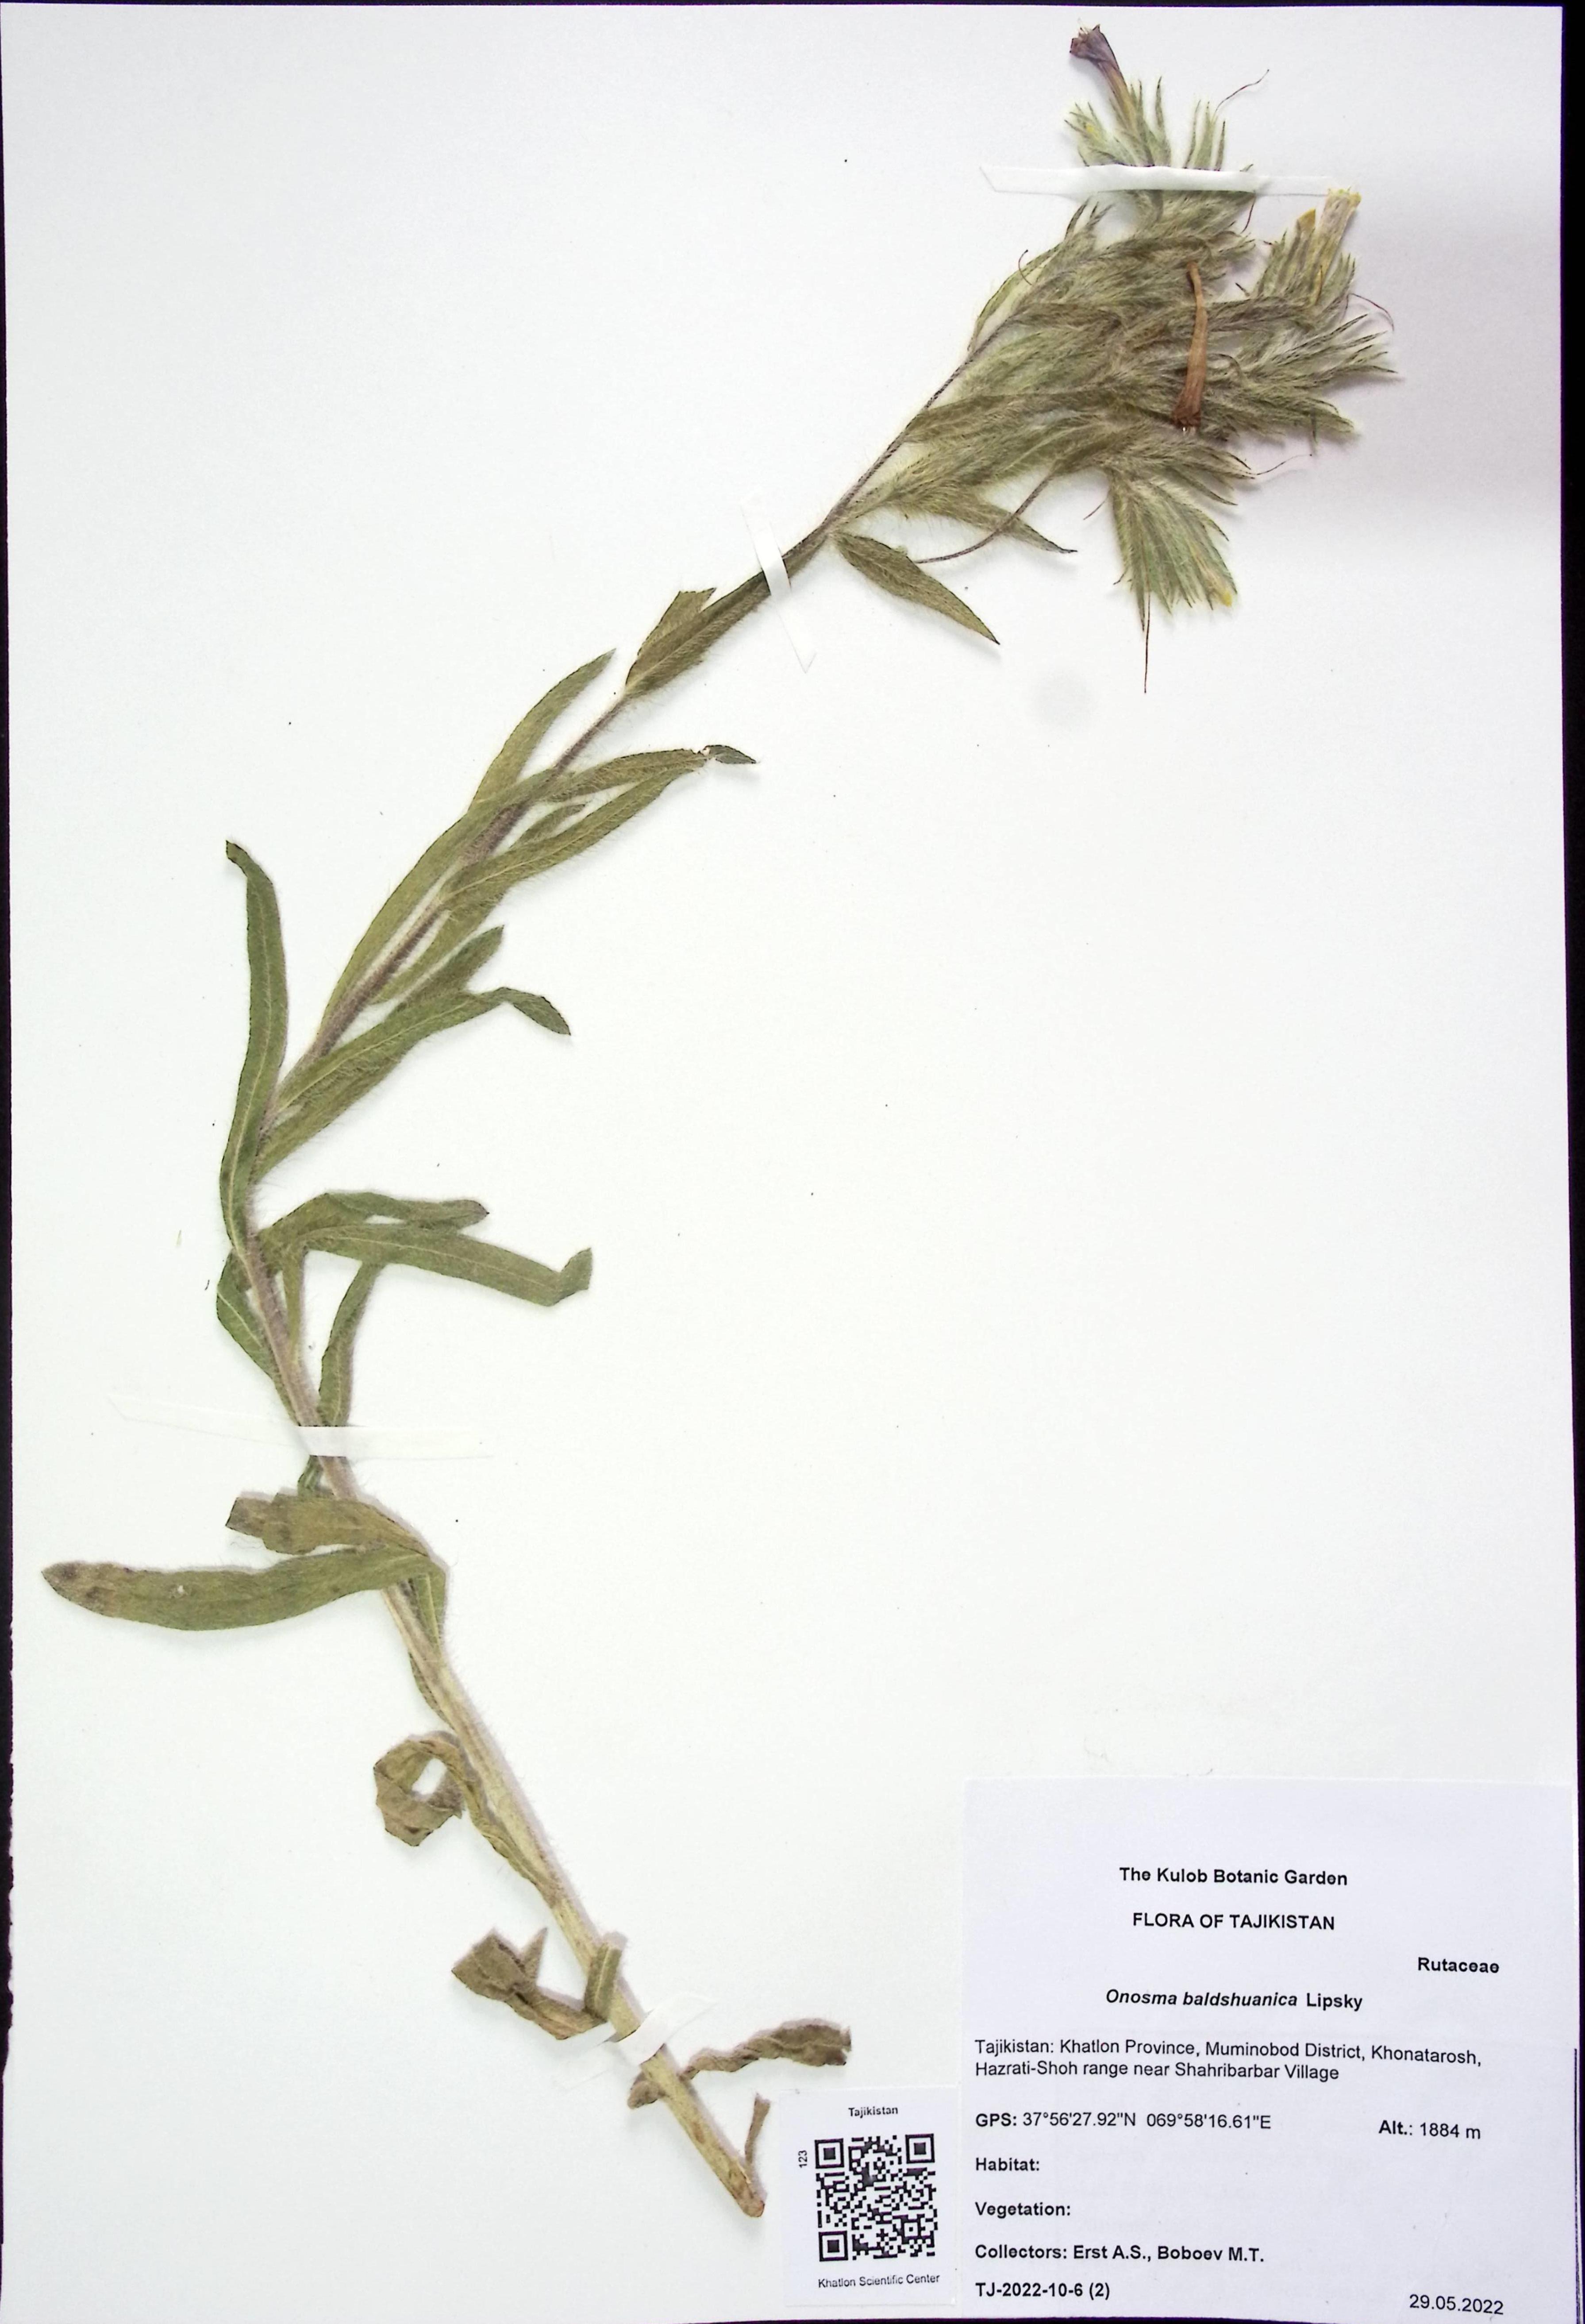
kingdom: Plantae
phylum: Tracheophyta
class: Magnoliopsida
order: Boraginales
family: Boraginaceae
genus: Onosma
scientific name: Onosma baldshuanica
